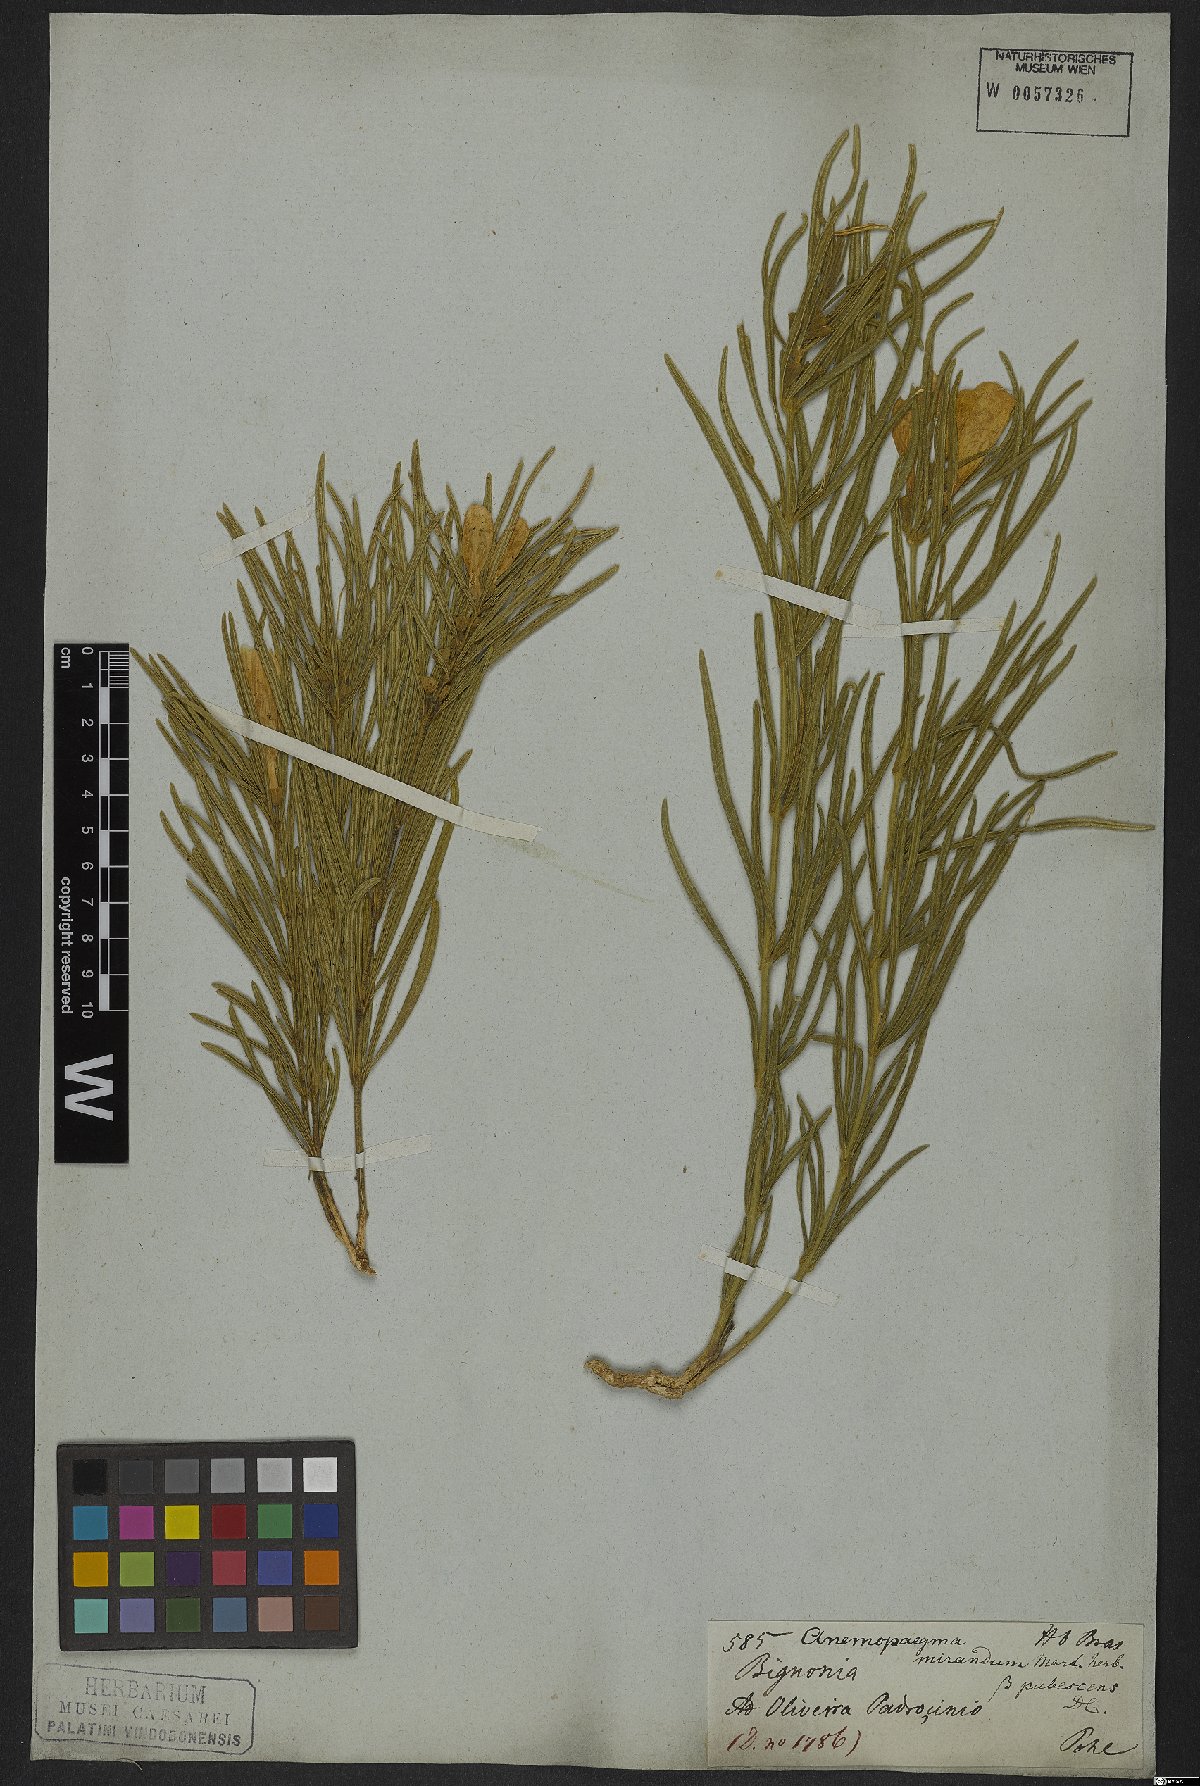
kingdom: Plantae
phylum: Tracheophyta
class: Magnoliopsida
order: Lamiales
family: Bignoniaceae
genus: Anemopaegma
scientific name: Anemopaegma arvense
